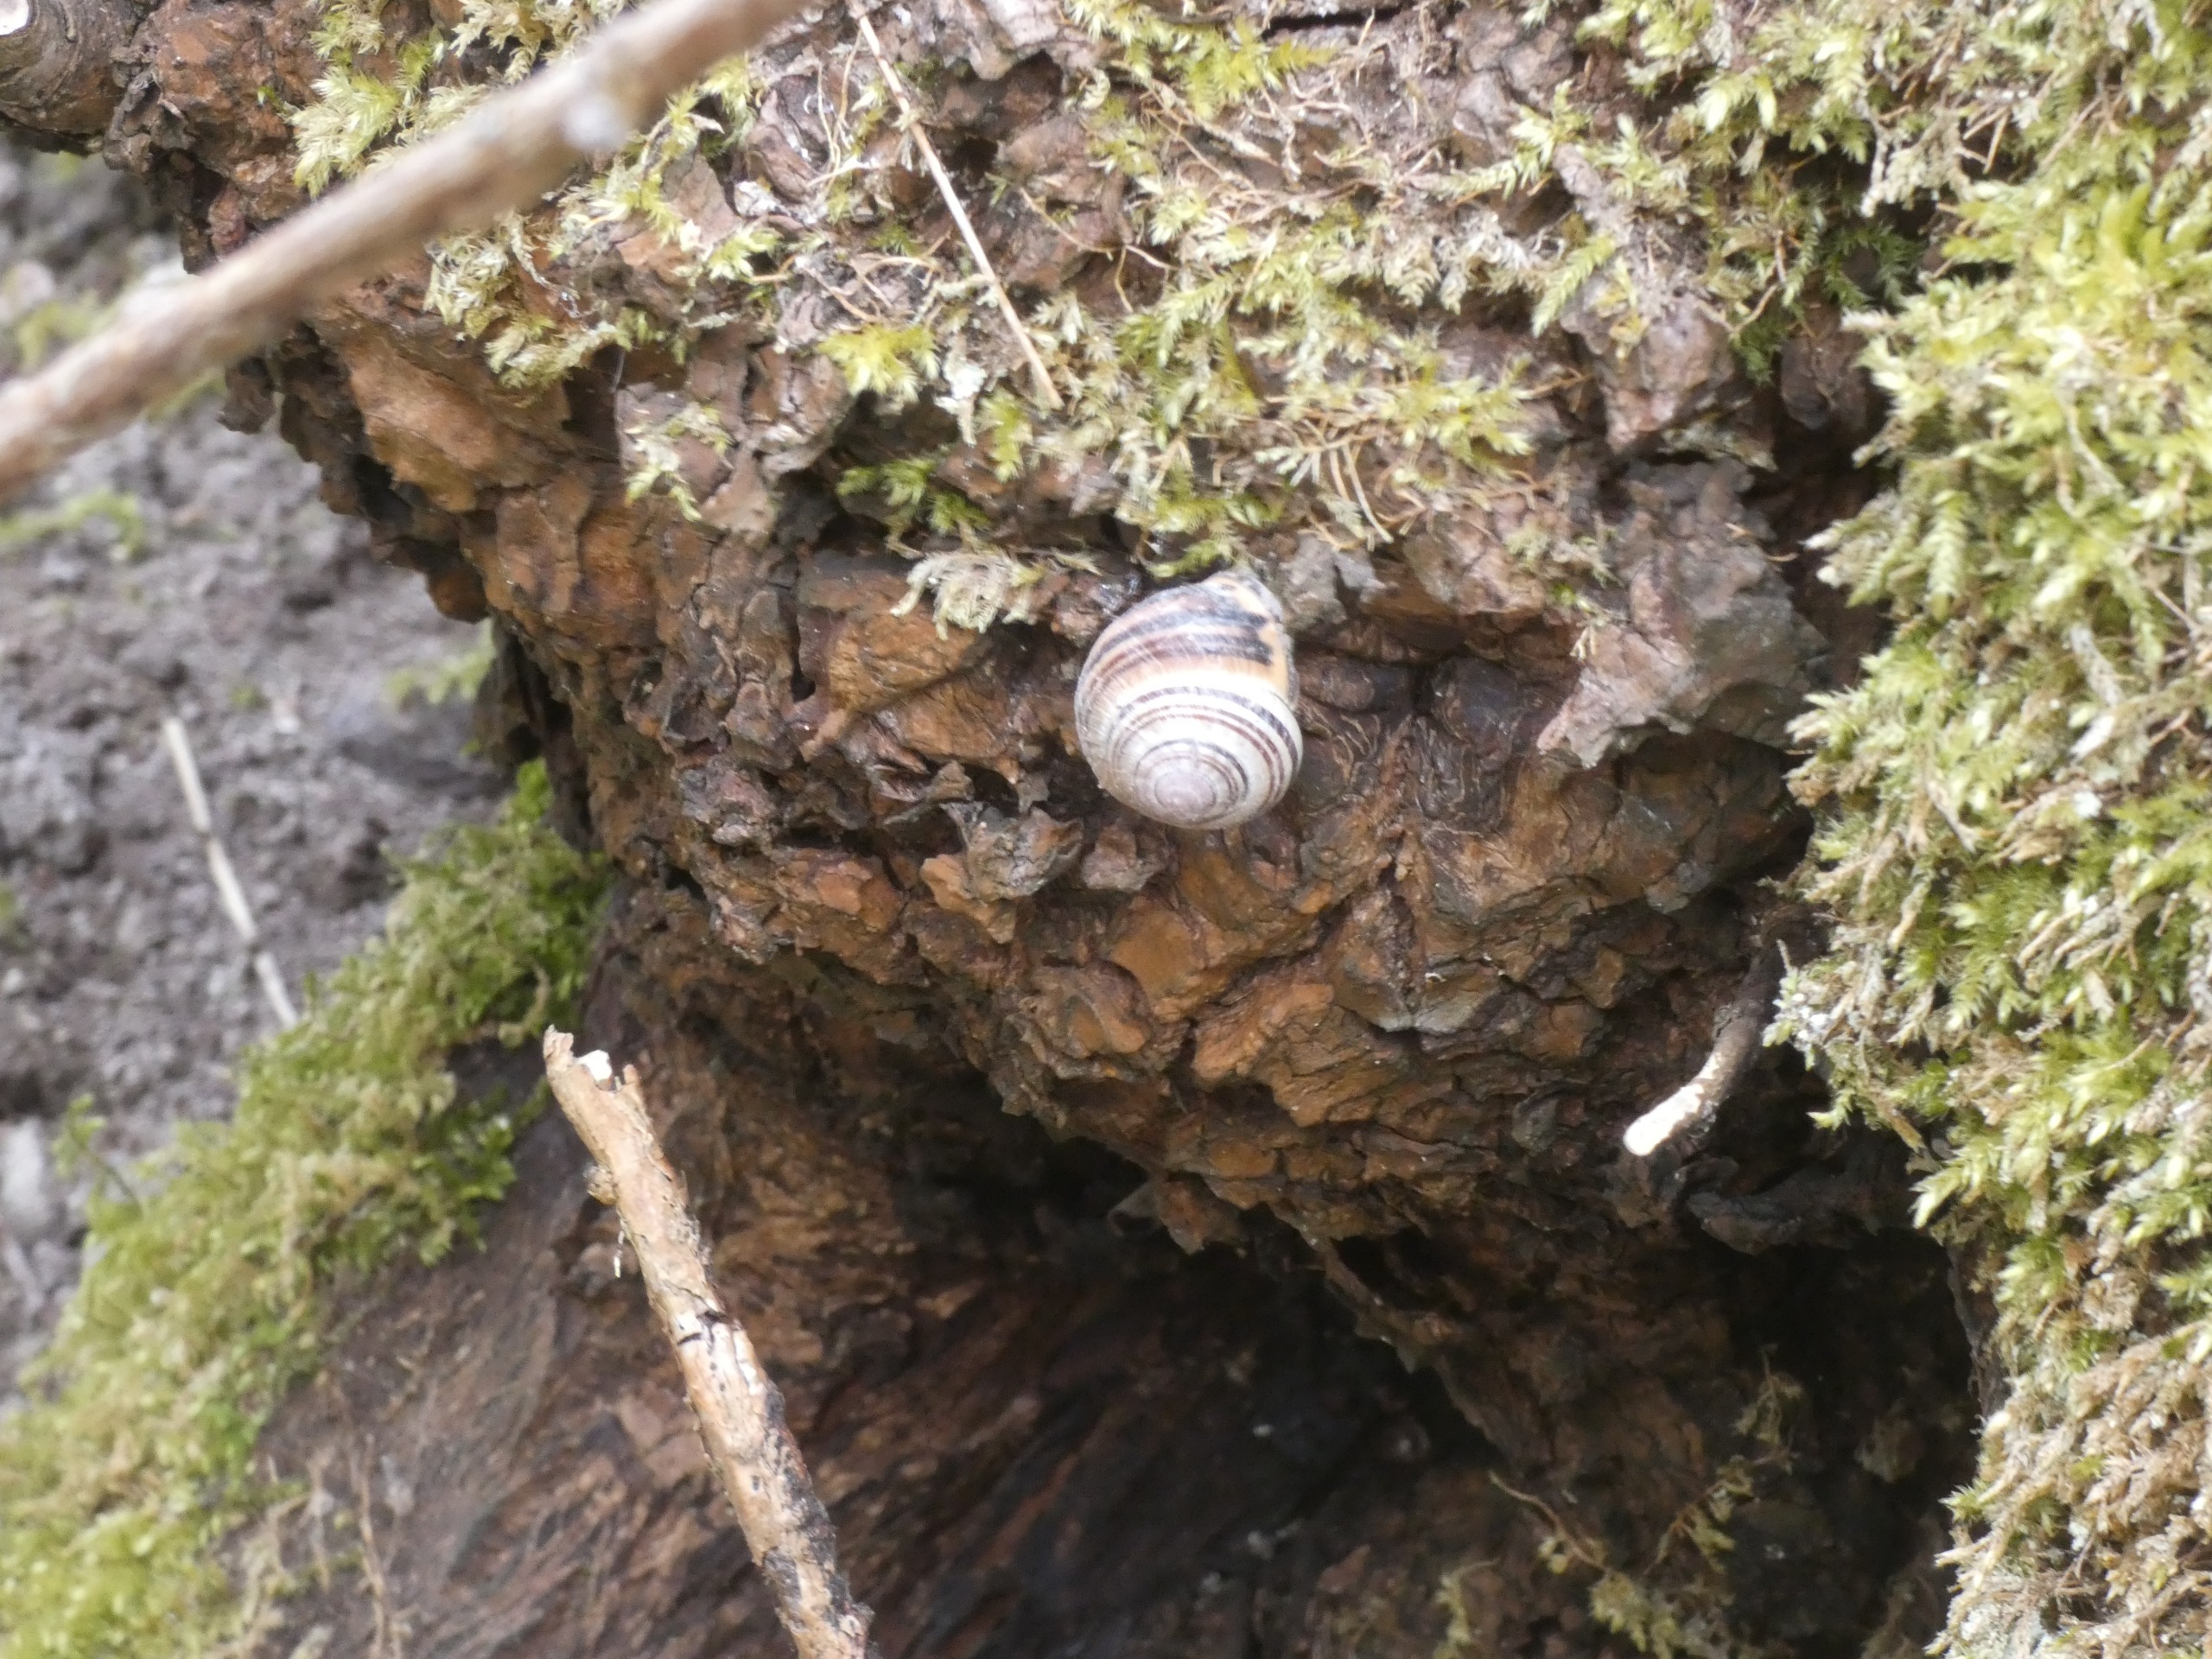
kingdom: Animalia
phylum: Mollusca
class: Gastropoda
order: Stylommatophora
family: Helicidae
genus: Cepaea
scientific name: Cepaea nemoralis
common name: Lundsnegl
